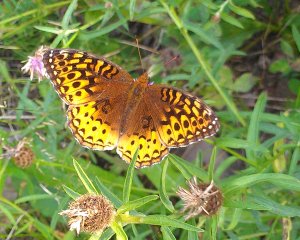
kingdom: Animalia
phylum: Arthropoda
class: Insecta
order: Lepidoptera
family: Nymphalidae
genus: Speyeria
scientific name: Speyeria cybele
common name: Great Spangled Fritillary
